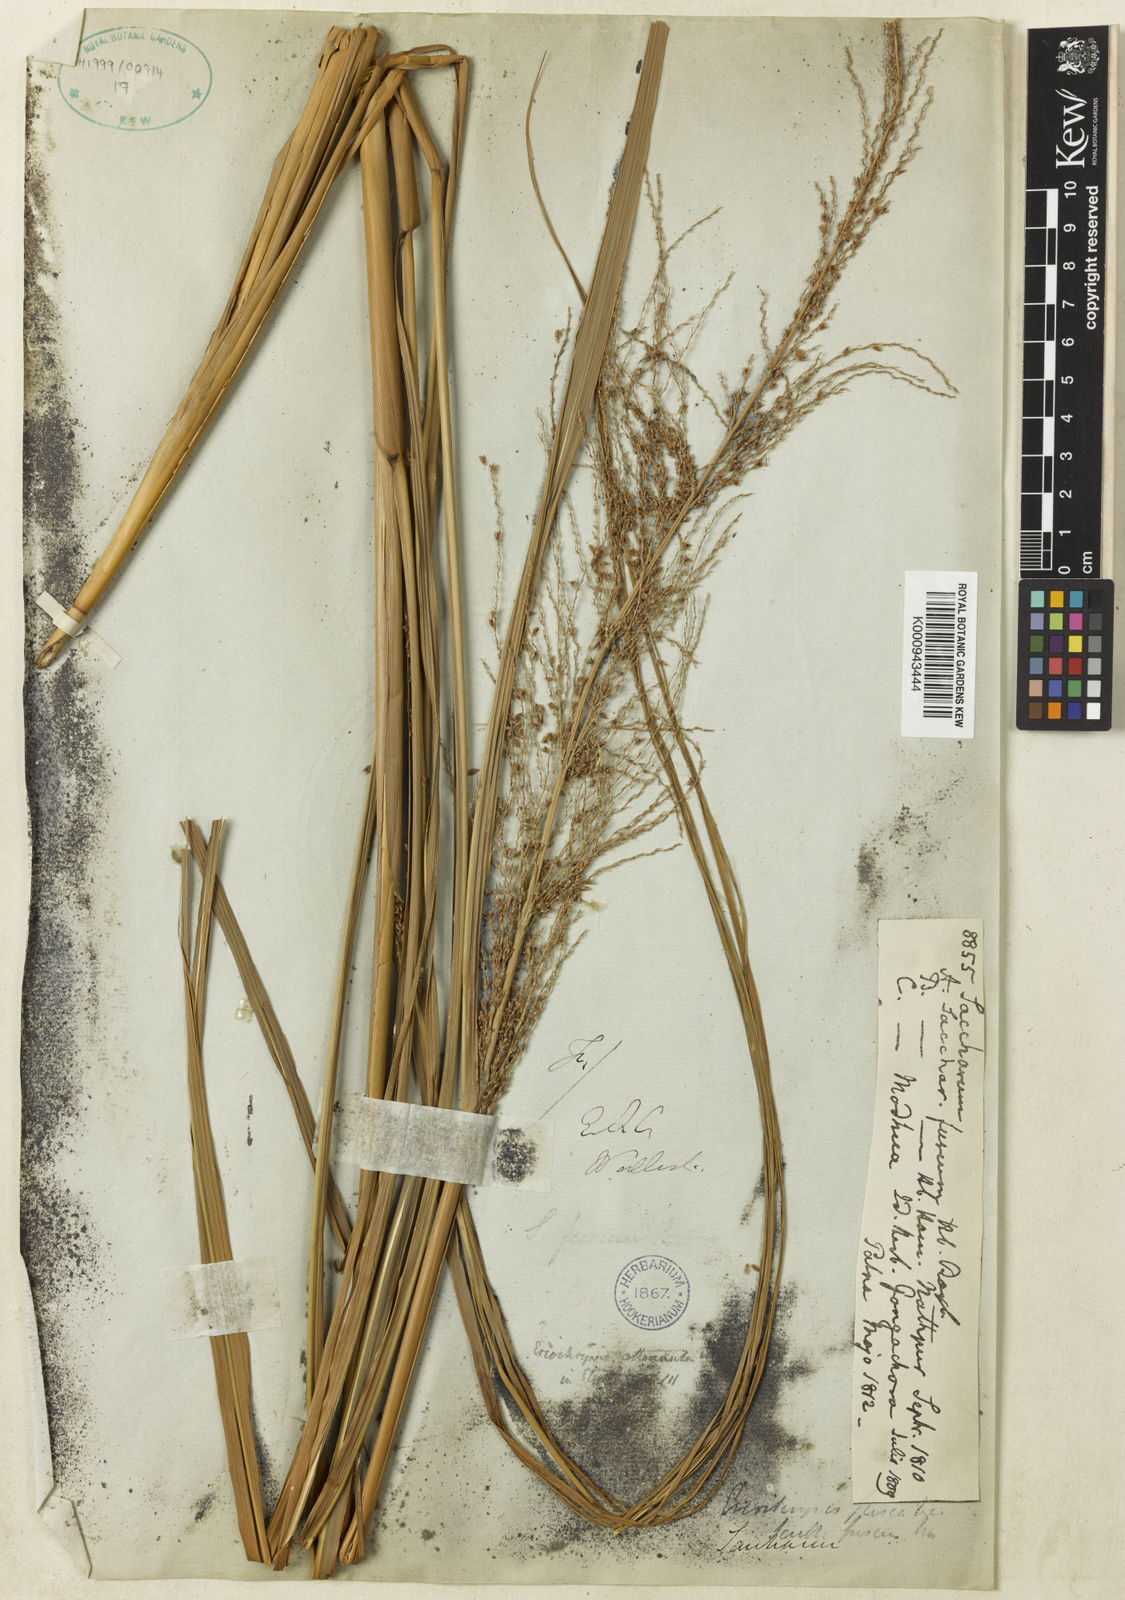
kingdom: Plantae
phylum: Tracheophyta
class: Liliopsida
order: Poales
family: Poaceae
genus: Miscanthus
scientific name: Miscanthus fuscus
